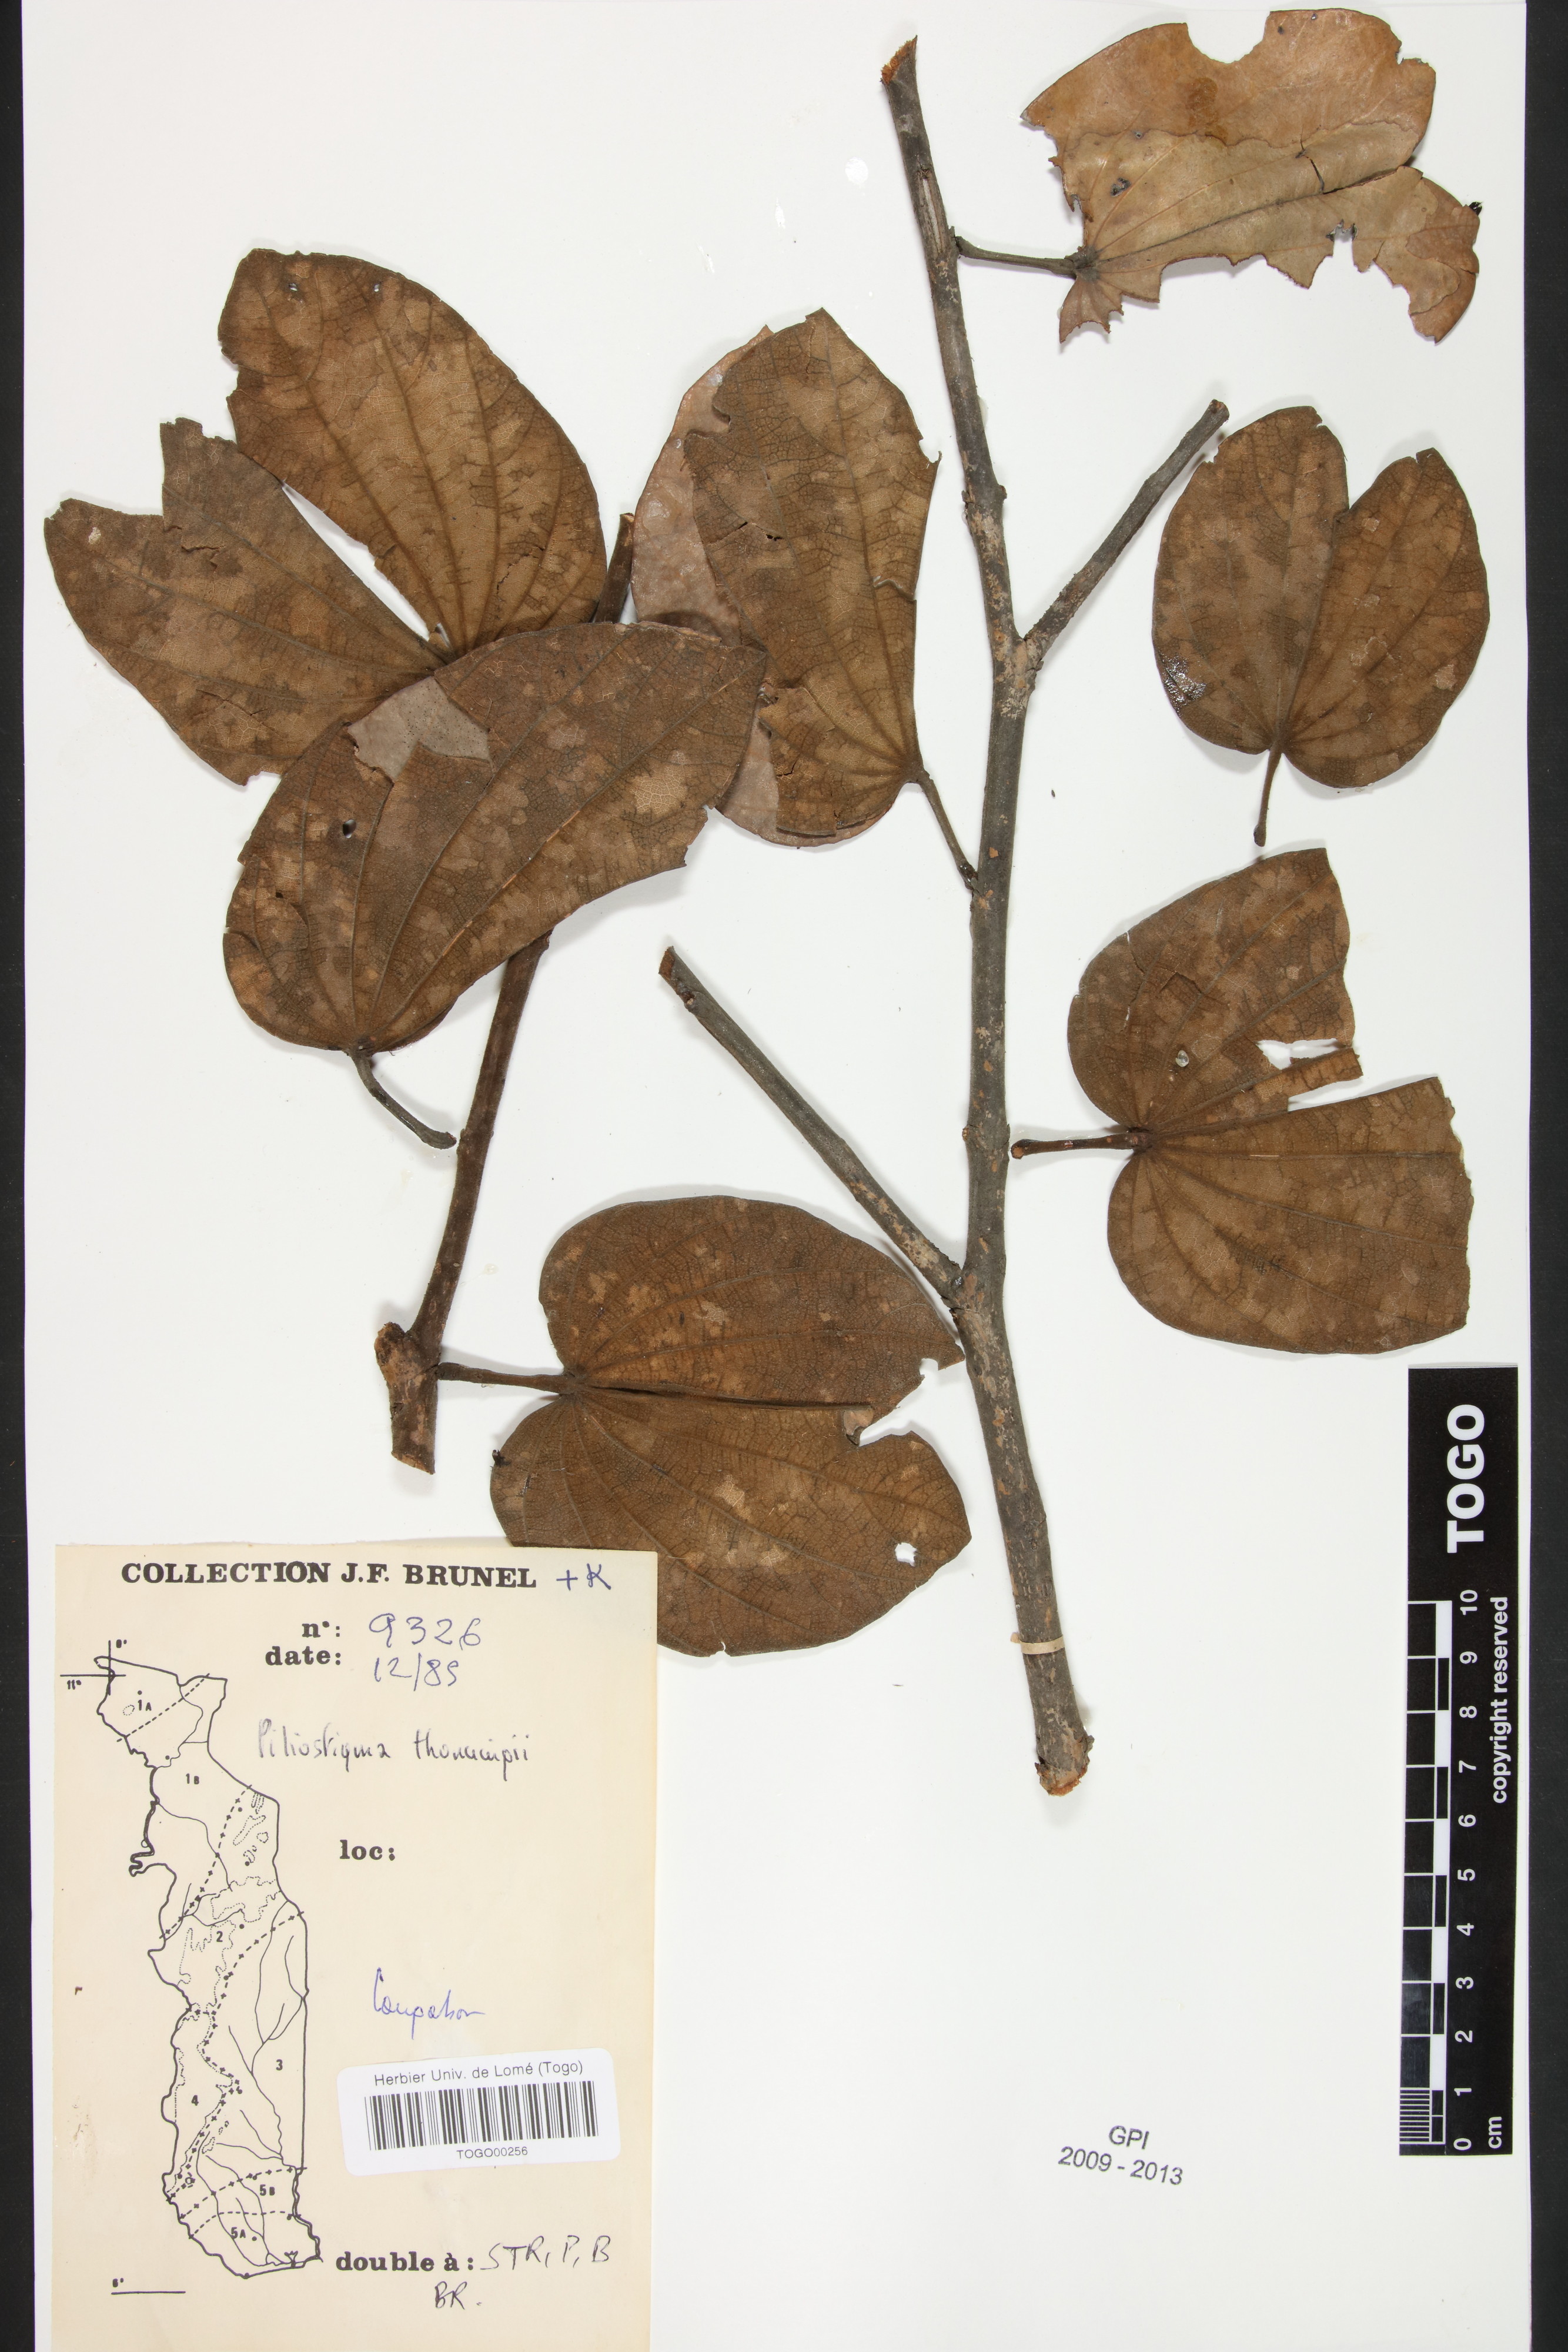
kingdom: Plantae
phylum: Tracheophyta
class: Magnoliopsida
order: Fabales
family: Fabaceae
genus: Piliostigma
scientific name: Piliostigma thonningii
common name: Kao
